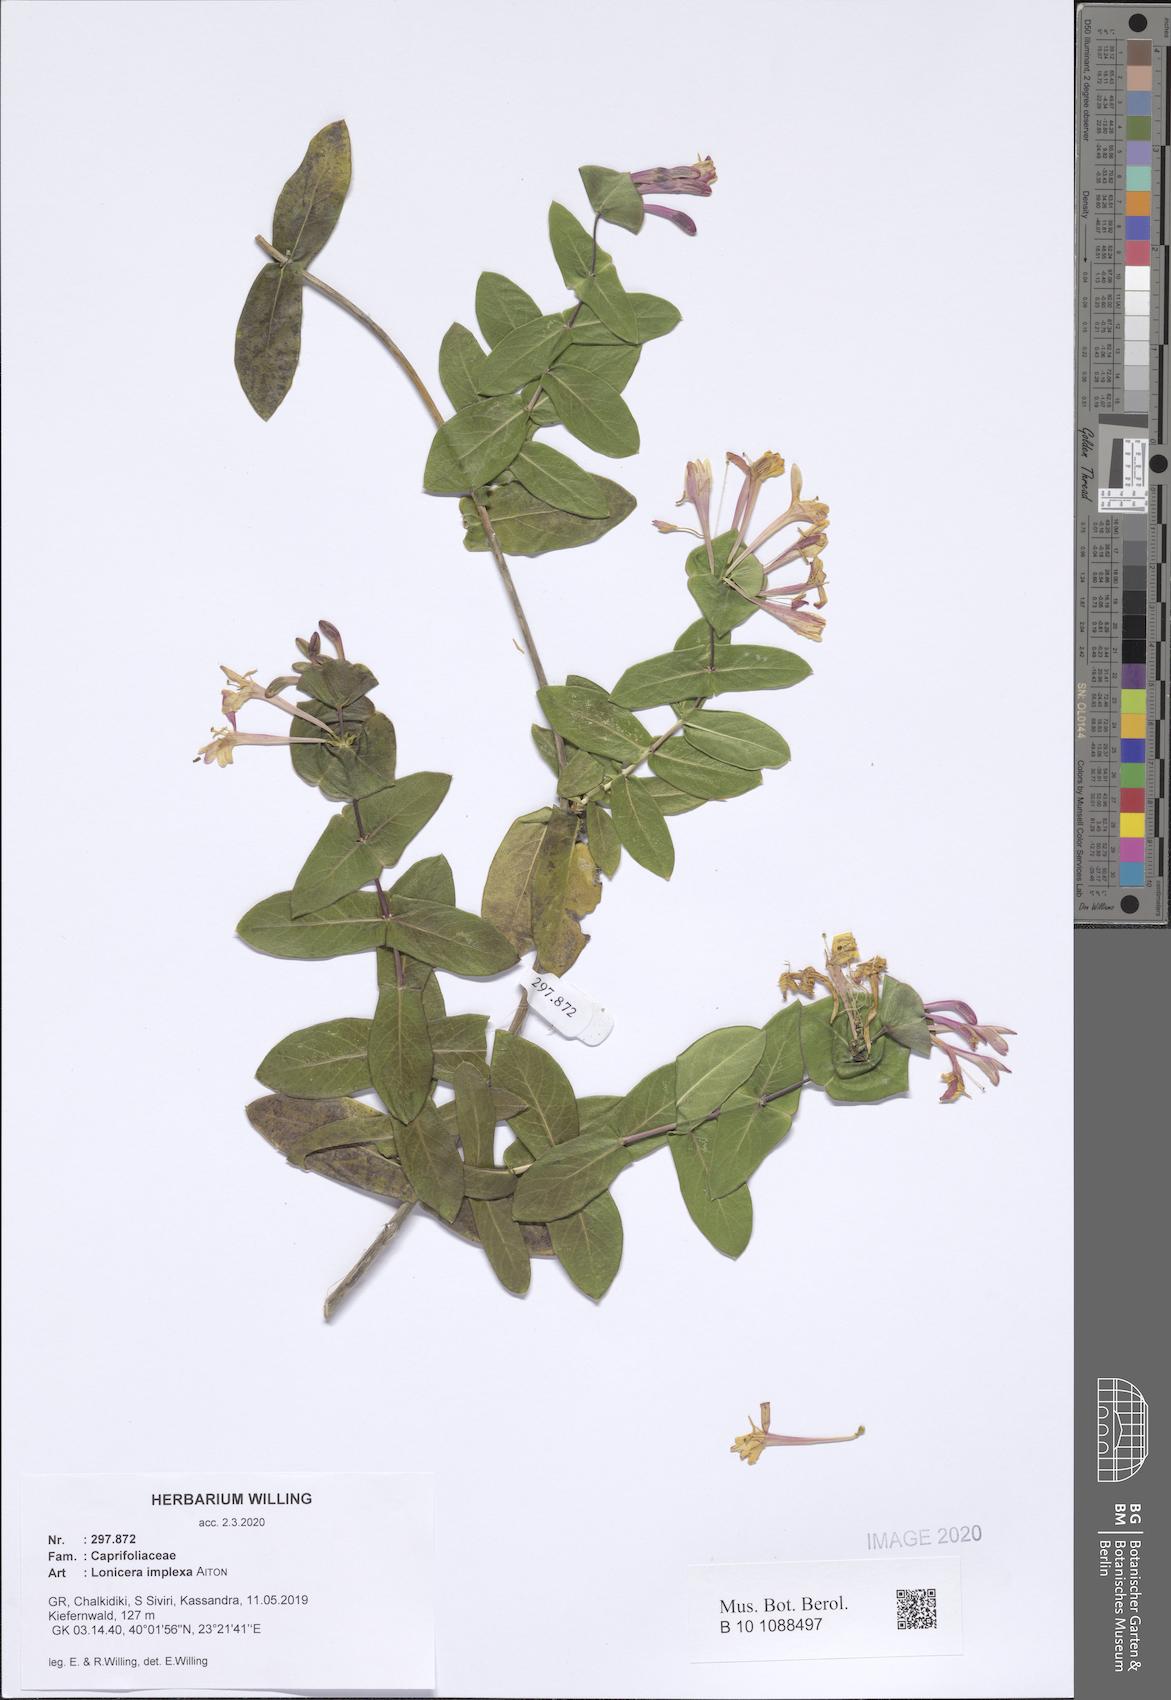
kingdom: Plantae
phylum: Tracheophyta
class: Magnoliopsida
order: Dipsacales
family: Caprifoliaceae
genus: Lonicera
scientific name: Lonicera implexa
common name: Minorca honeysuckle
